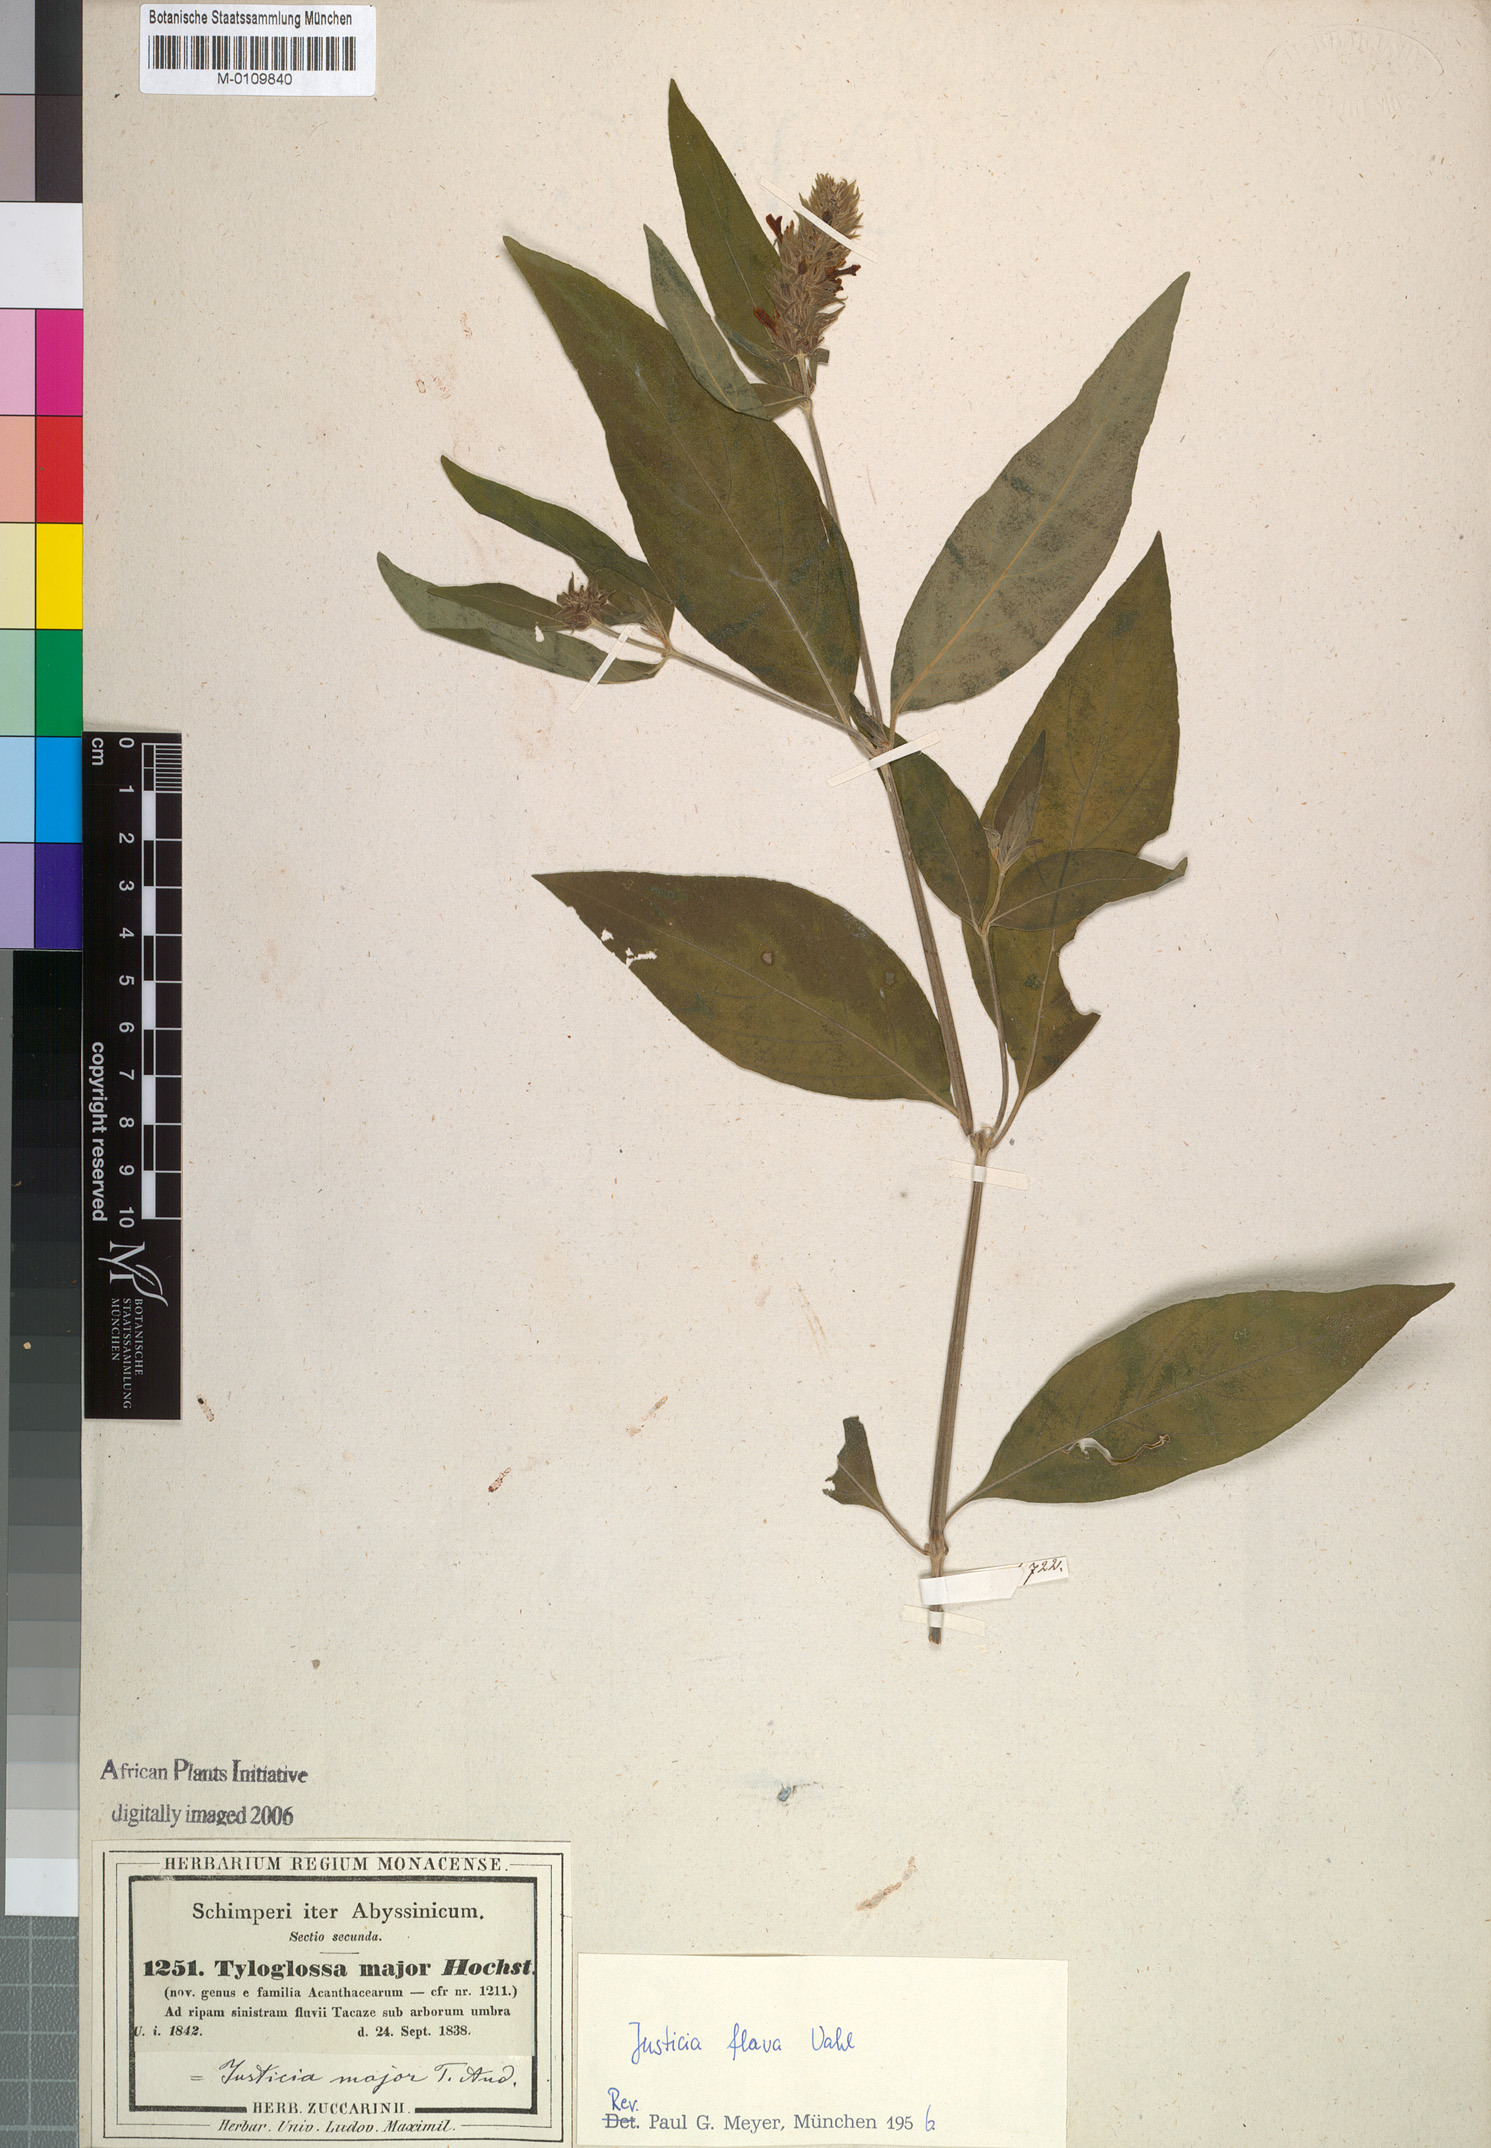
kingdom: Plantae
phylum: Tracheophyta
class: Magnoliopsida
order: Lamiales
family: Acanthaceae
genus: Justicia
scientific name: Justicia flava
